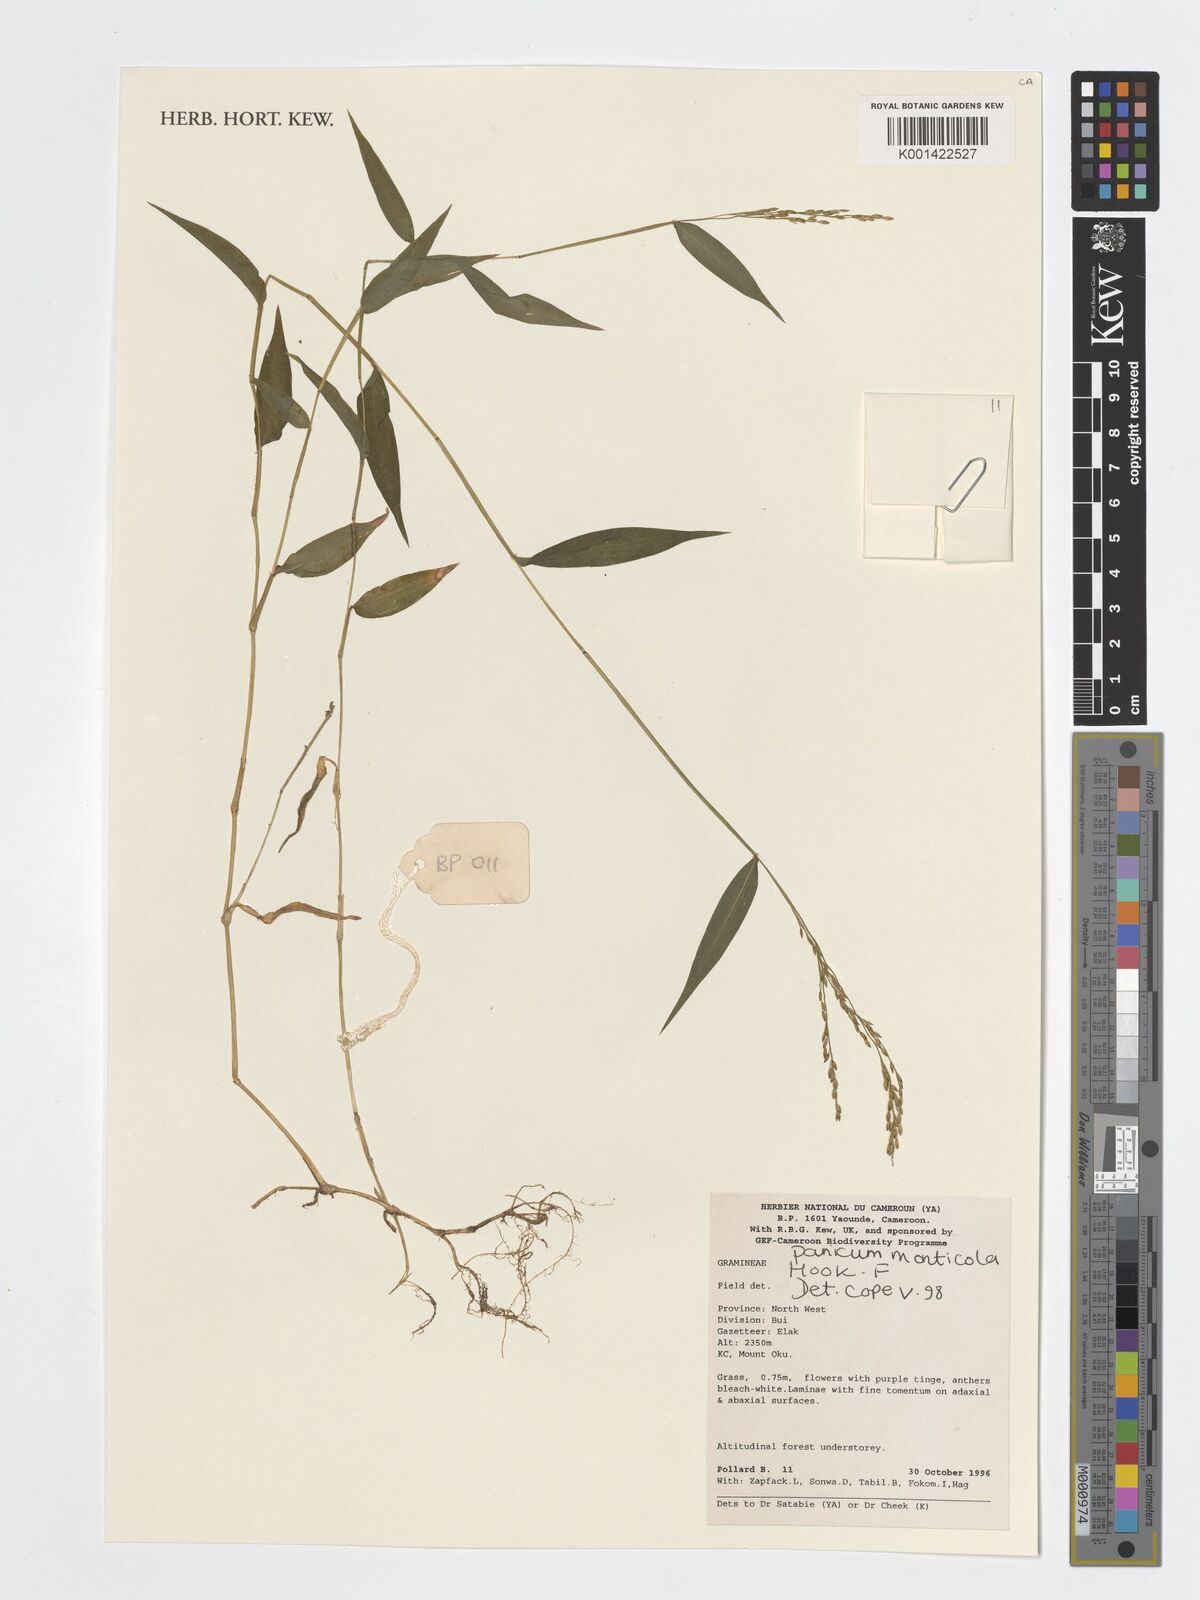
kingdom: Plantae
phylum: Tracheophyta
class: Liliopsida
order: Poales
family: Poaceae
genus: Panicum
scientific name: Panicum monticola
